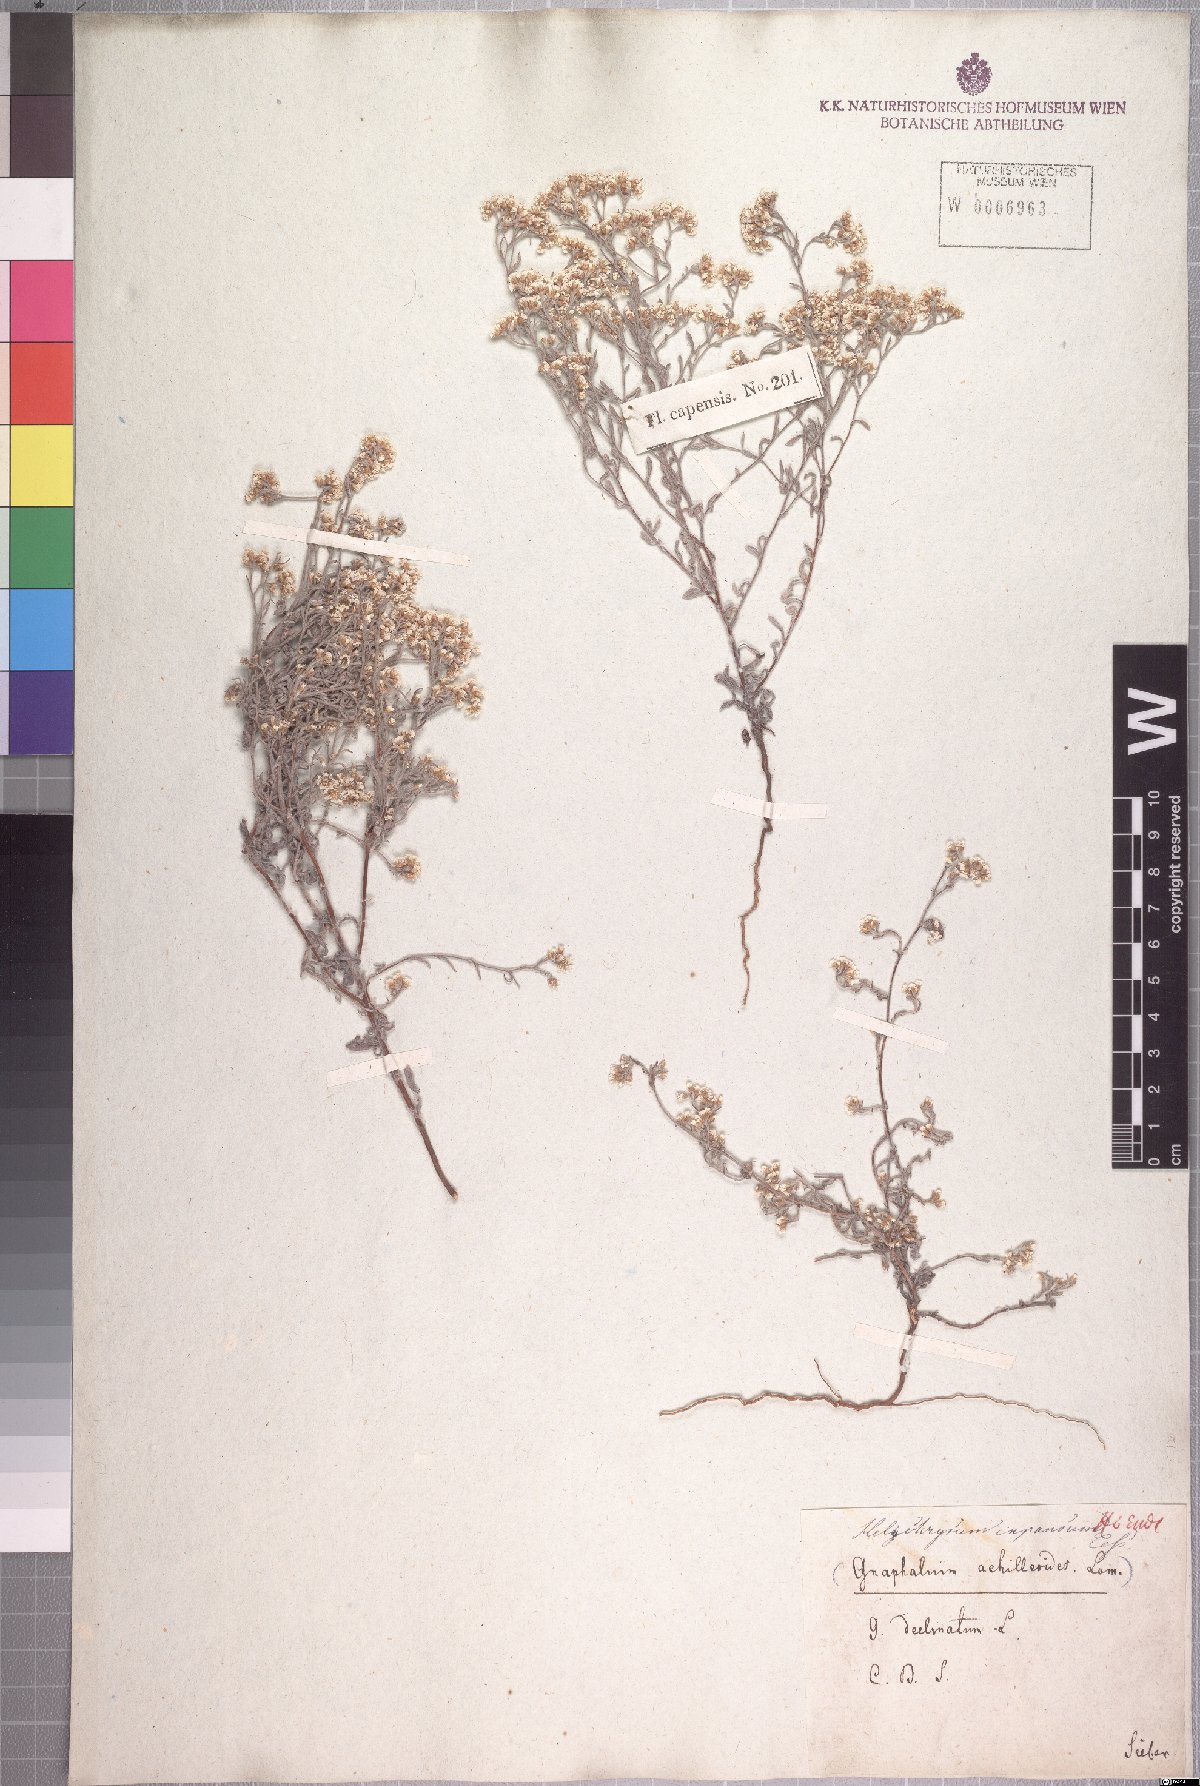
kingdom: Plantae
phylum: Tracheophyta
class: Magnoliopsida
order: Asterales
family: Asteraceae
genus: Helichrysum
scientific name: Helichrysum indicum
